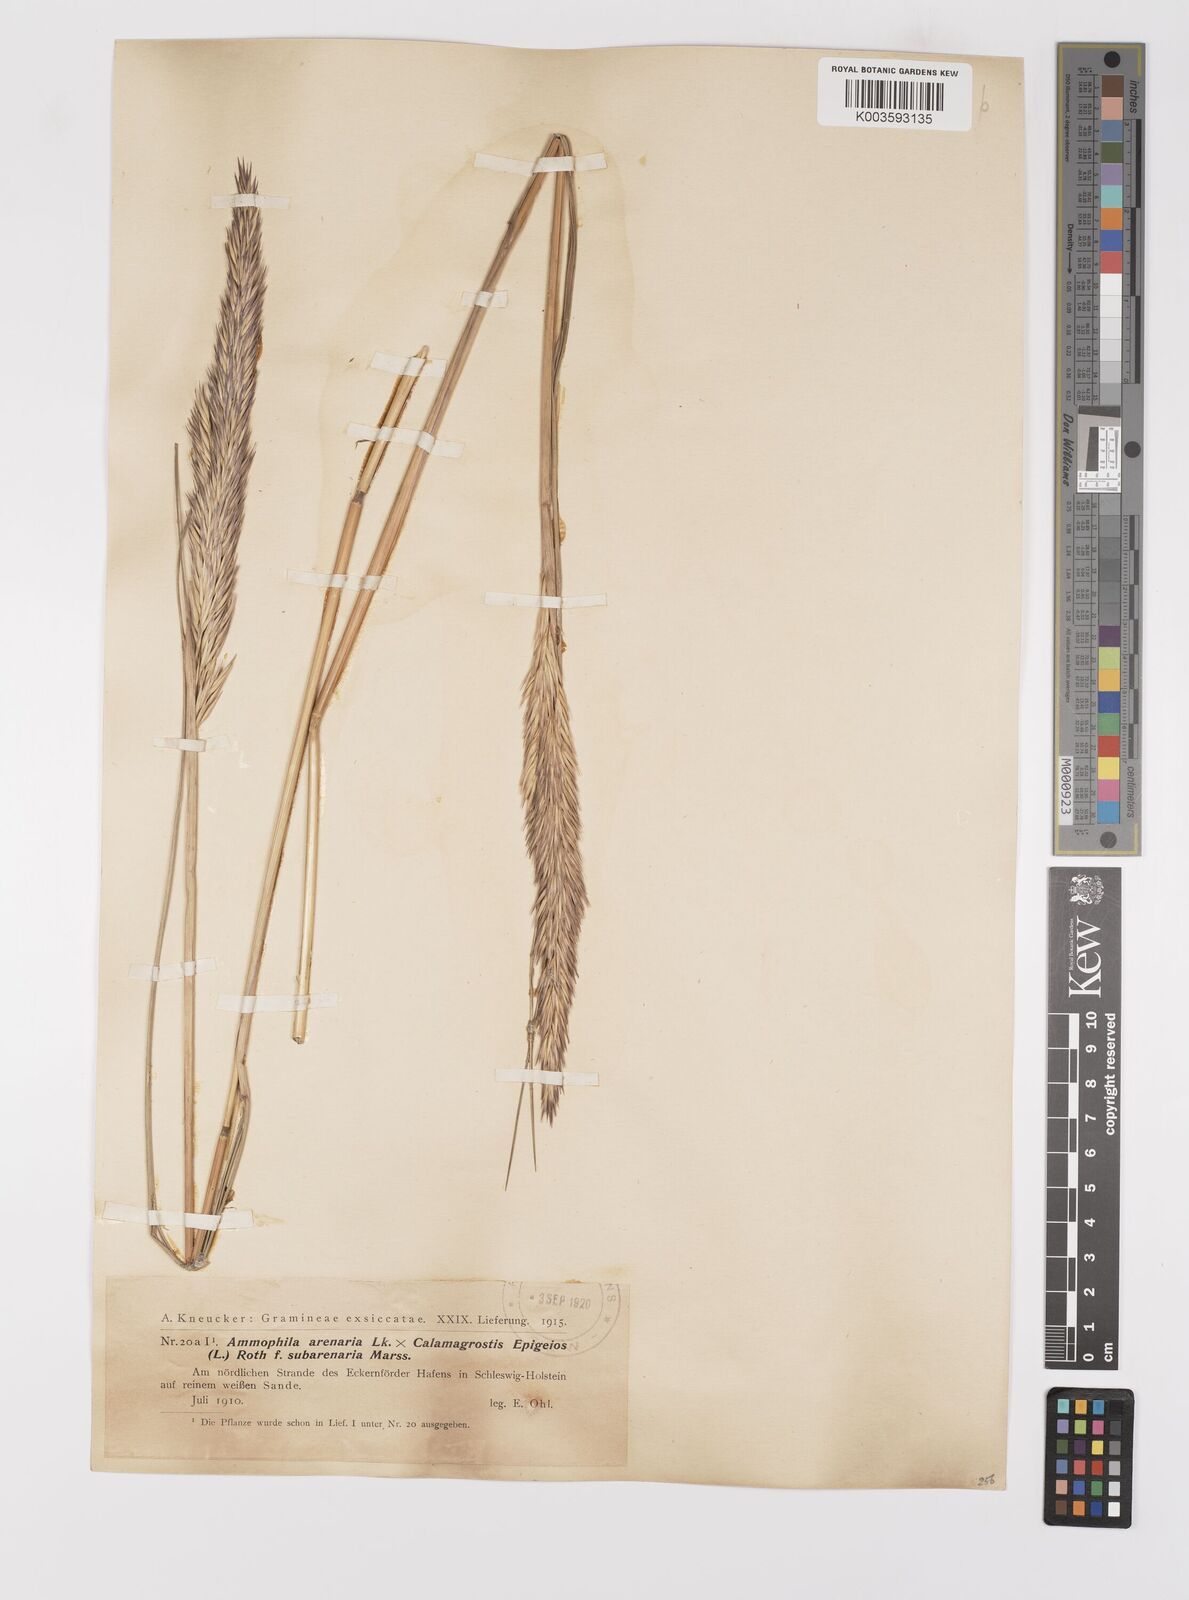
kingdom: Plantae
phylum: Tracheophyta
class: Liliopsida
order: Poales
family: Poaceae
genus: Calamagrostis
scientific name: Calamagrostis baltica
